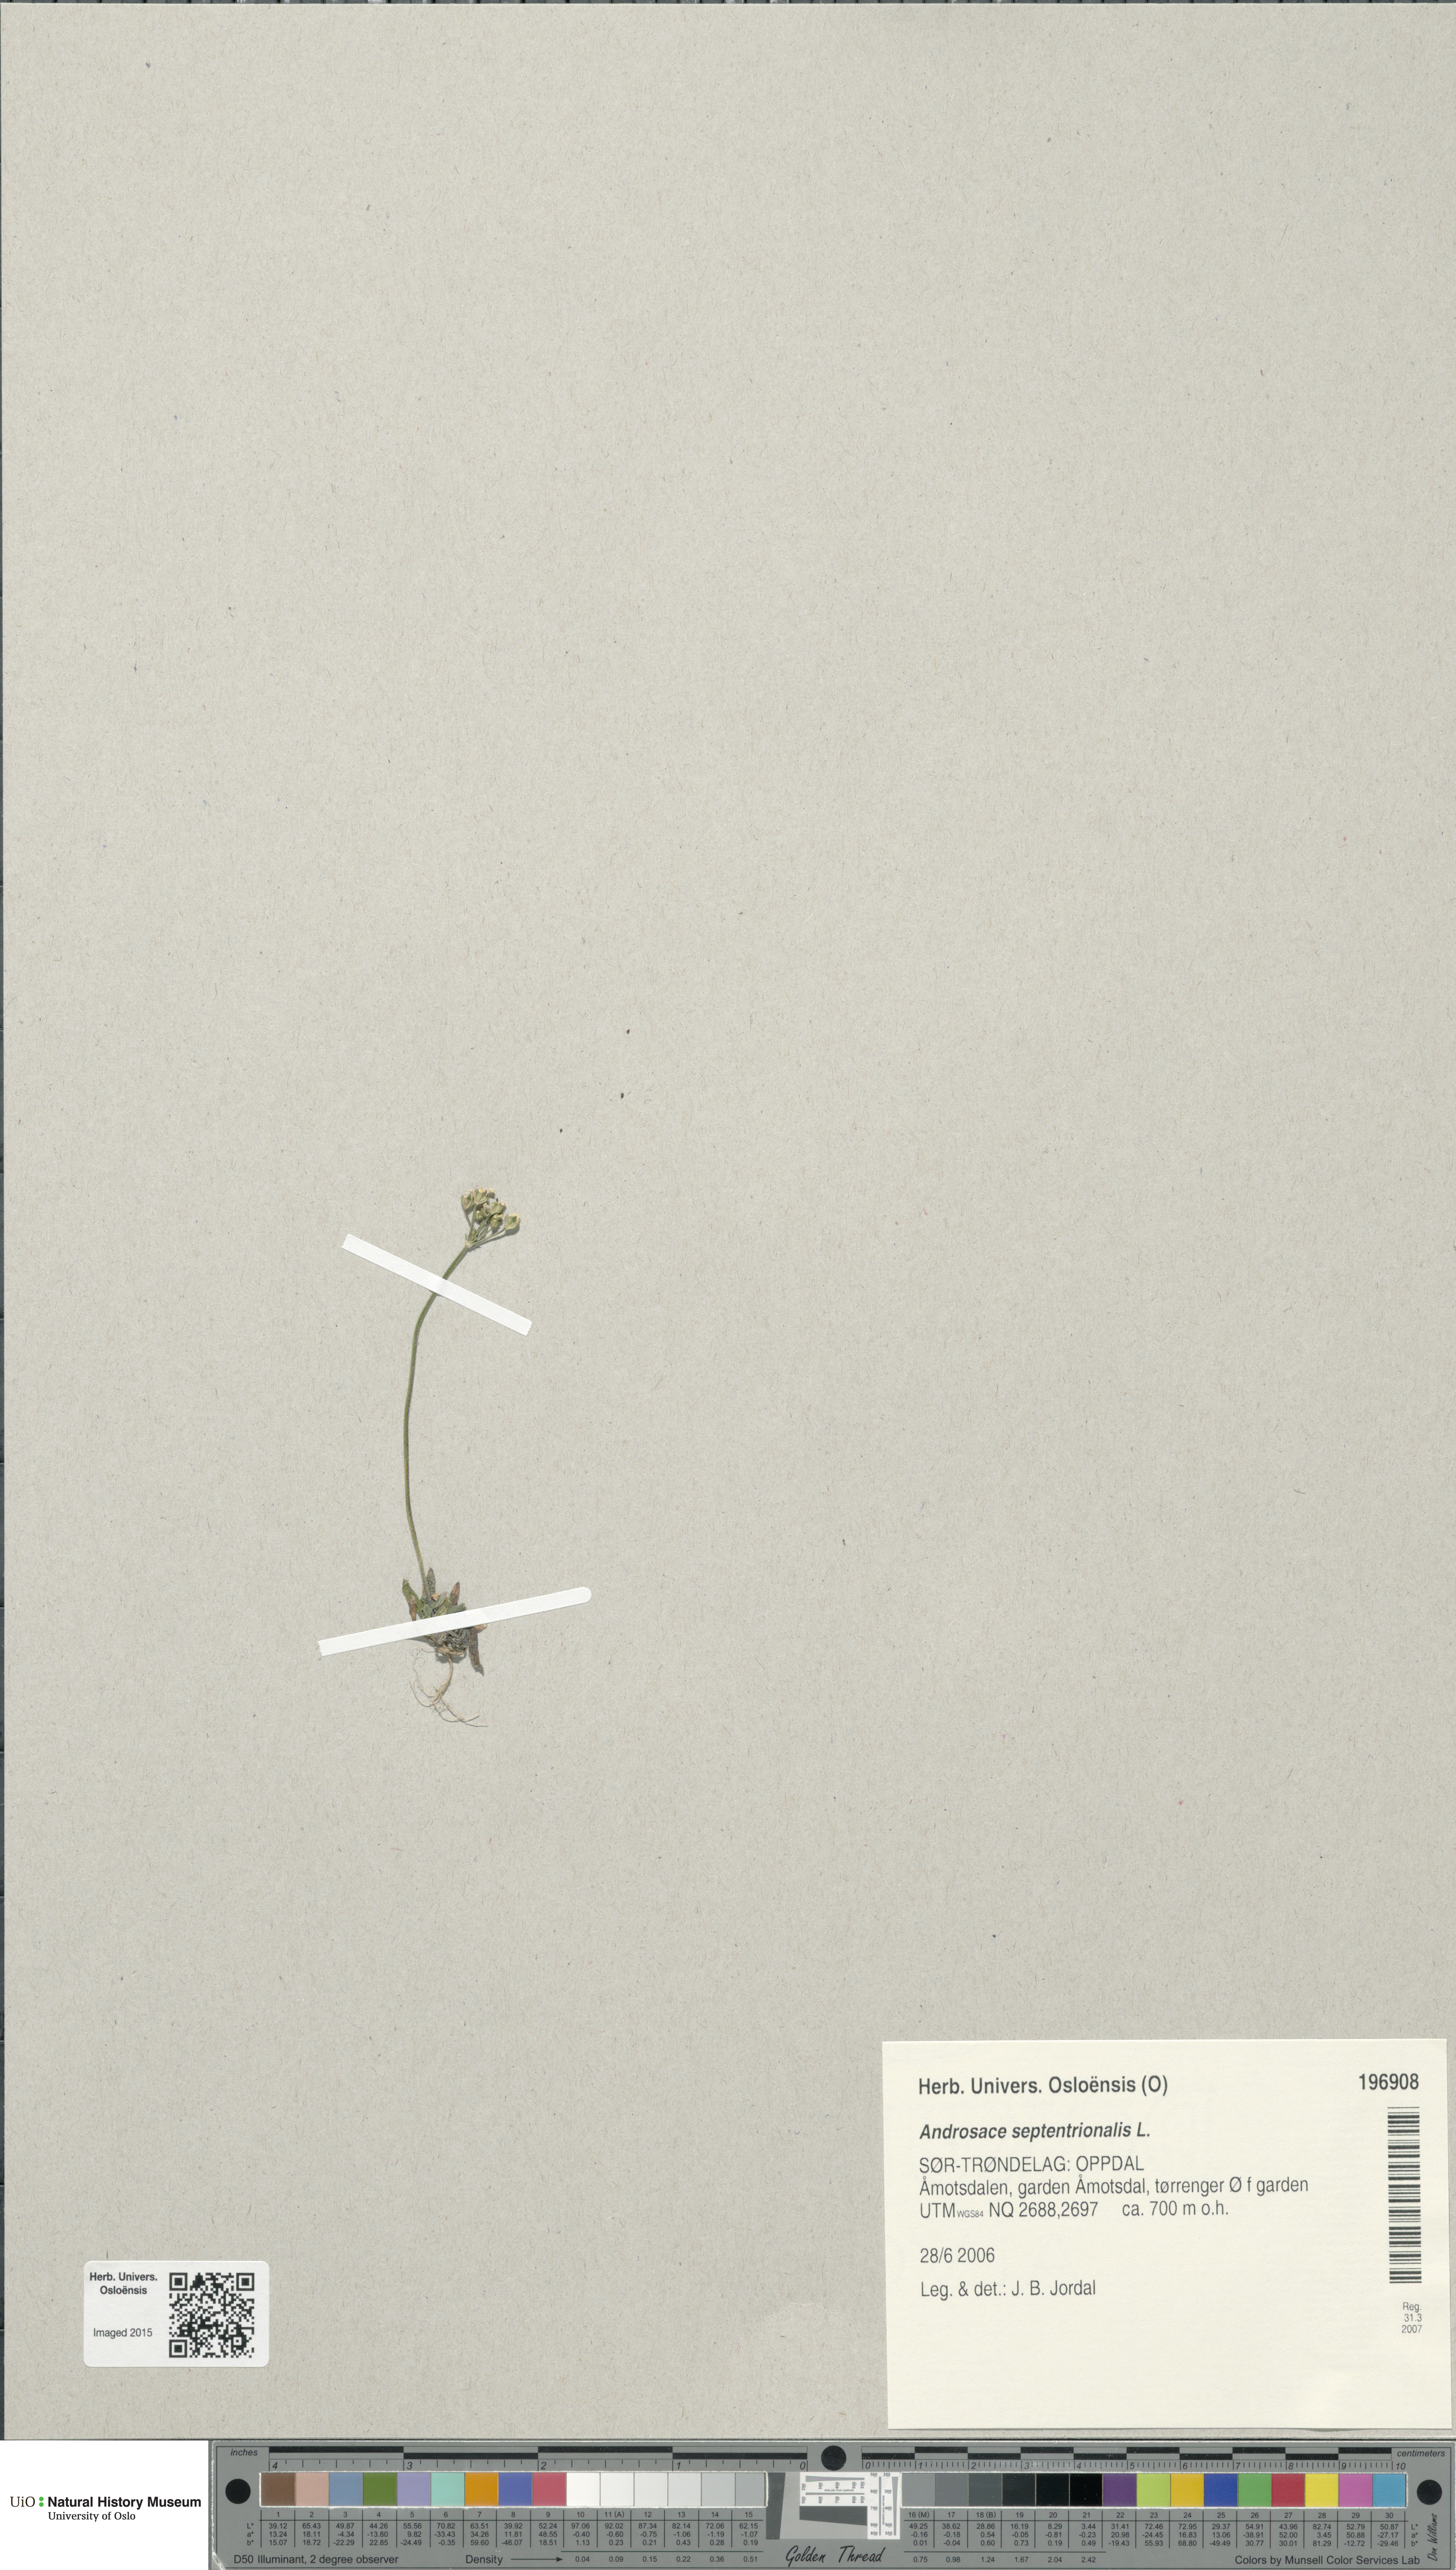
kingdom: Plantae
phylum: Tracheophyta
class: Magnoliopsida
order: Ericales
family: Primulaceae
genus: Androsace
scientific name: Androsace septentrionalis
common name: Hairy northern fairy-candelabra
